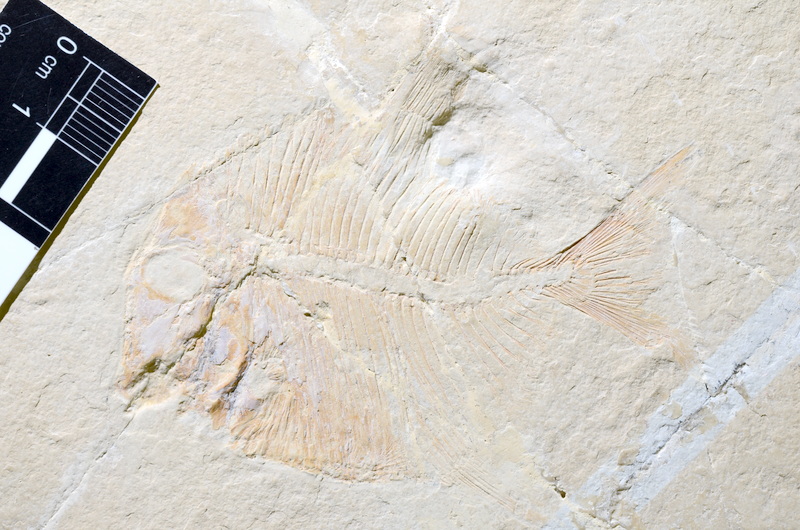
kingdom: Animalia
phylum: Chordata
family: Pycnodontidae
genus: Proscinetes
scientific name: Proscinetes elegans
